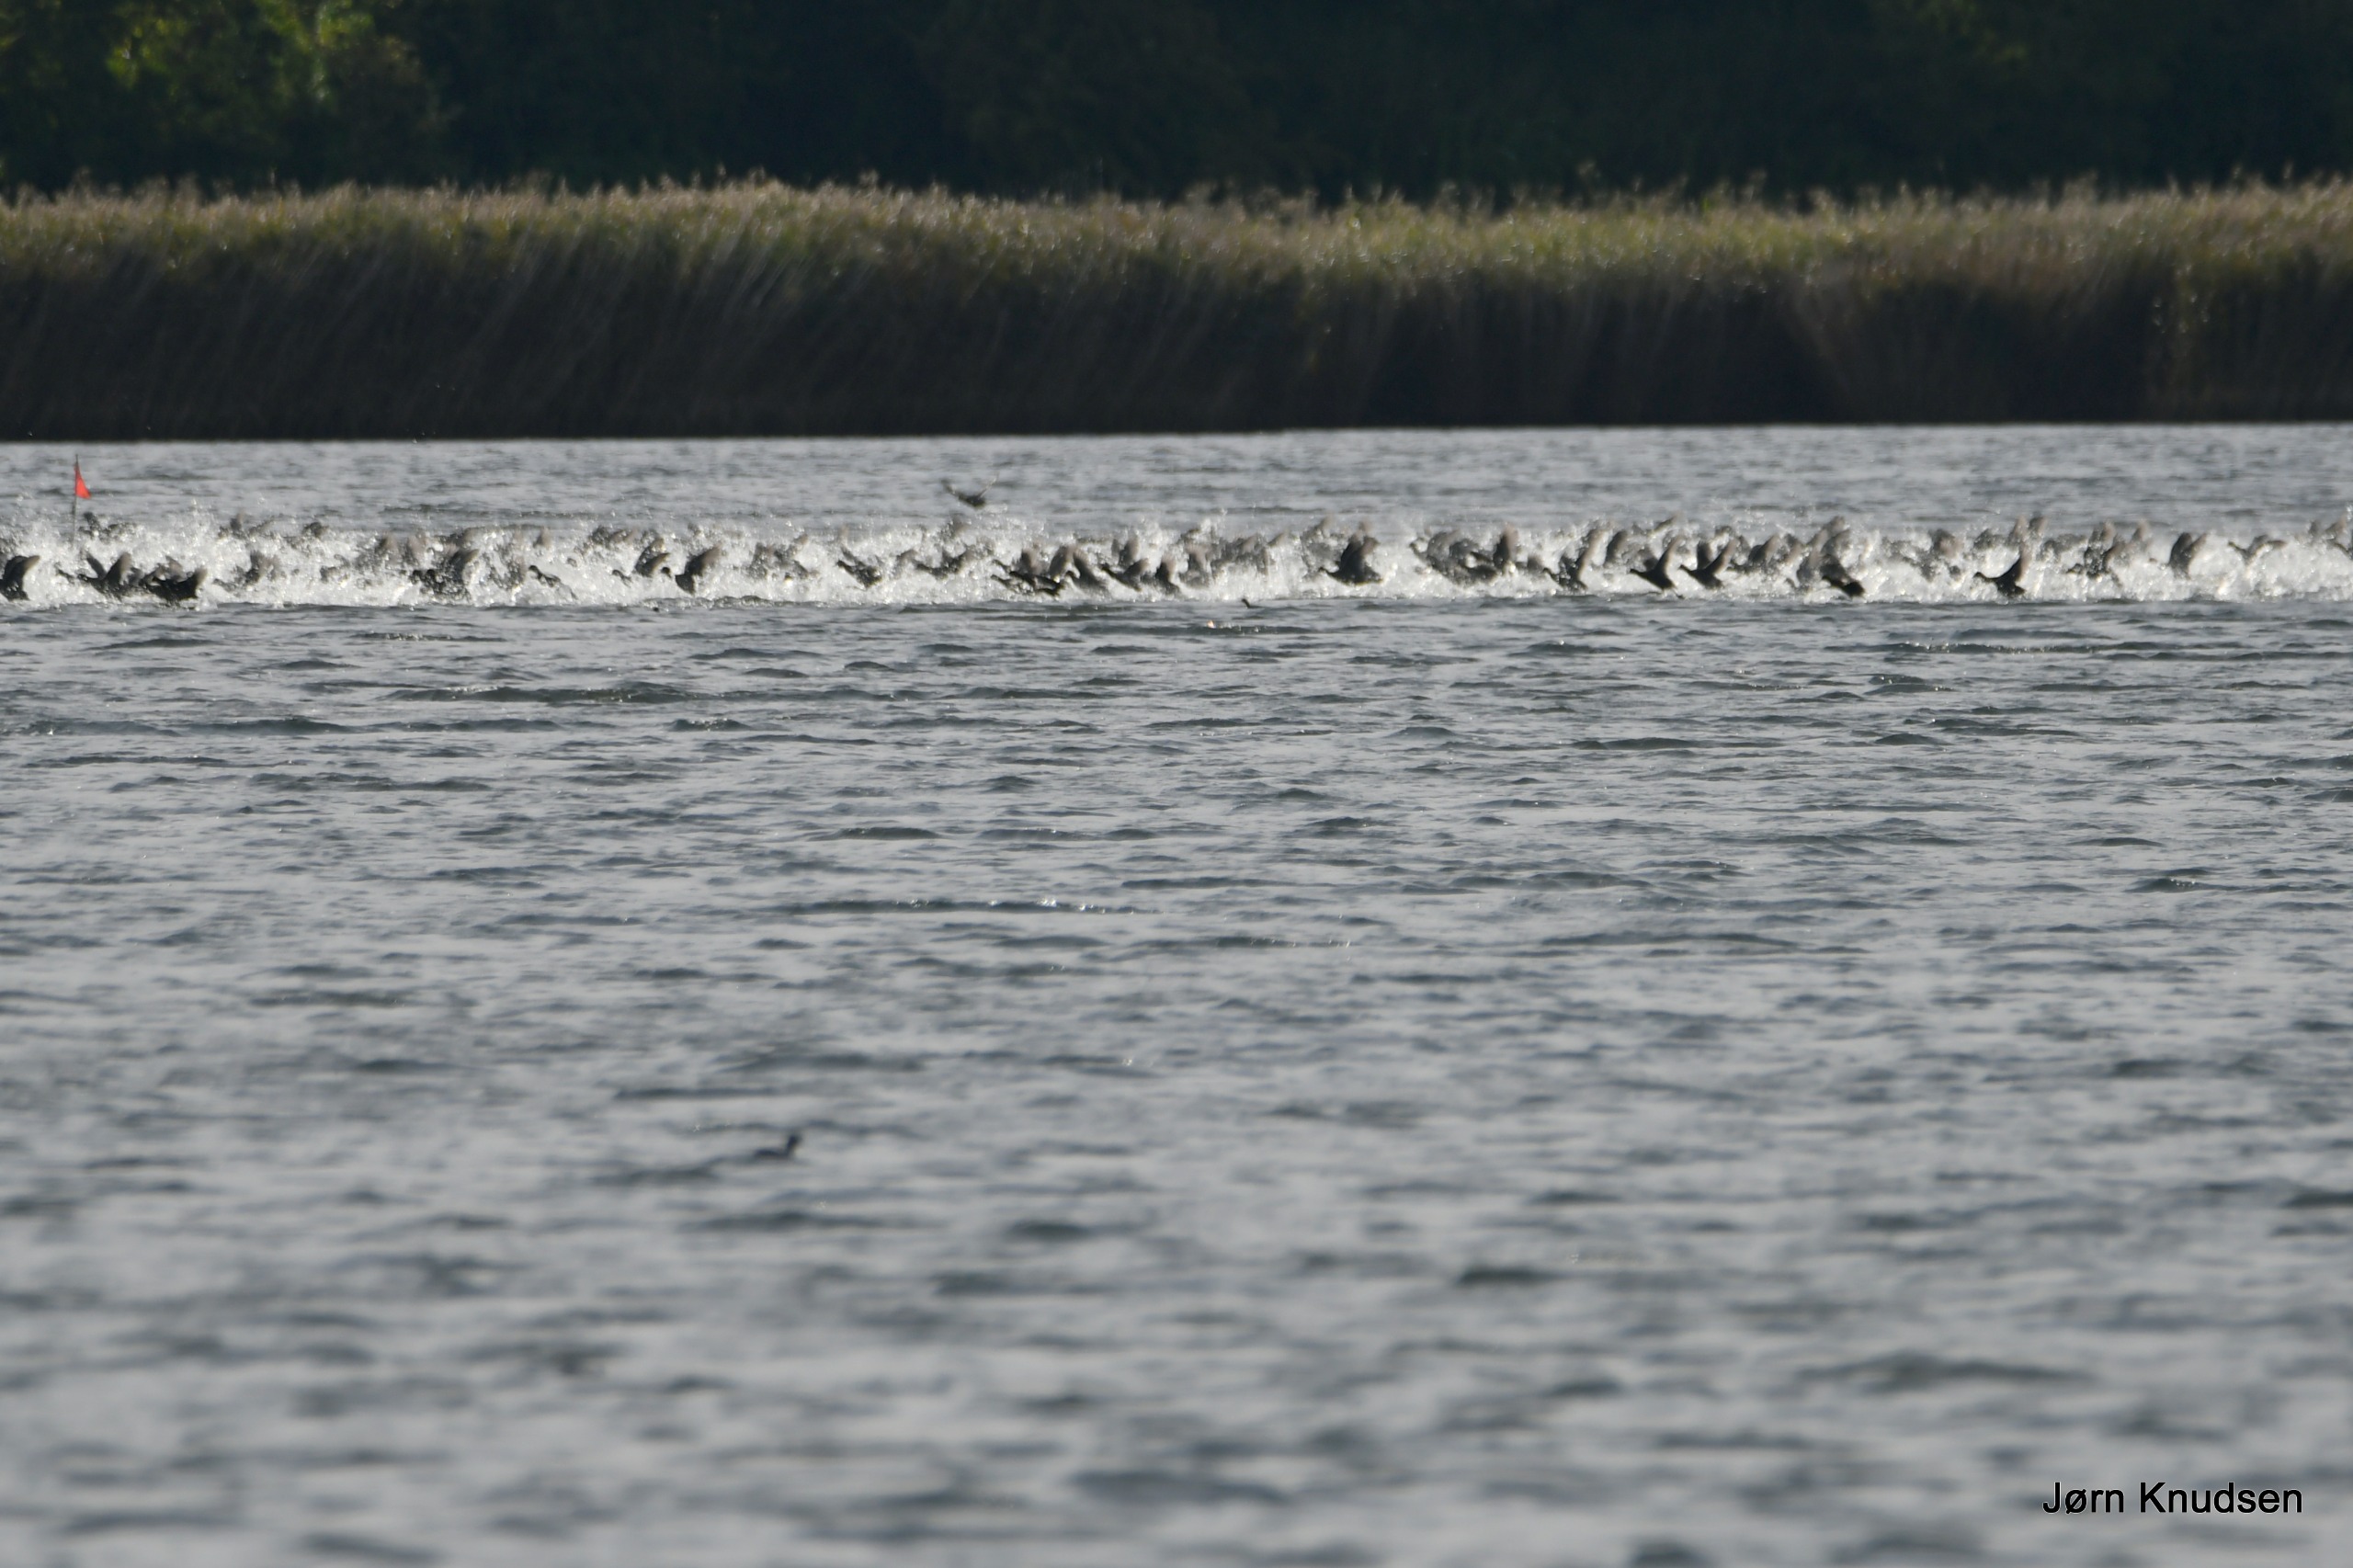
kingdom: Animalia
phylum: Chordata
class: Aves
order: Gruiformes
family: Rallidae
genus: Fulica
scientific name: Fulica atra
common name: Blishøne
